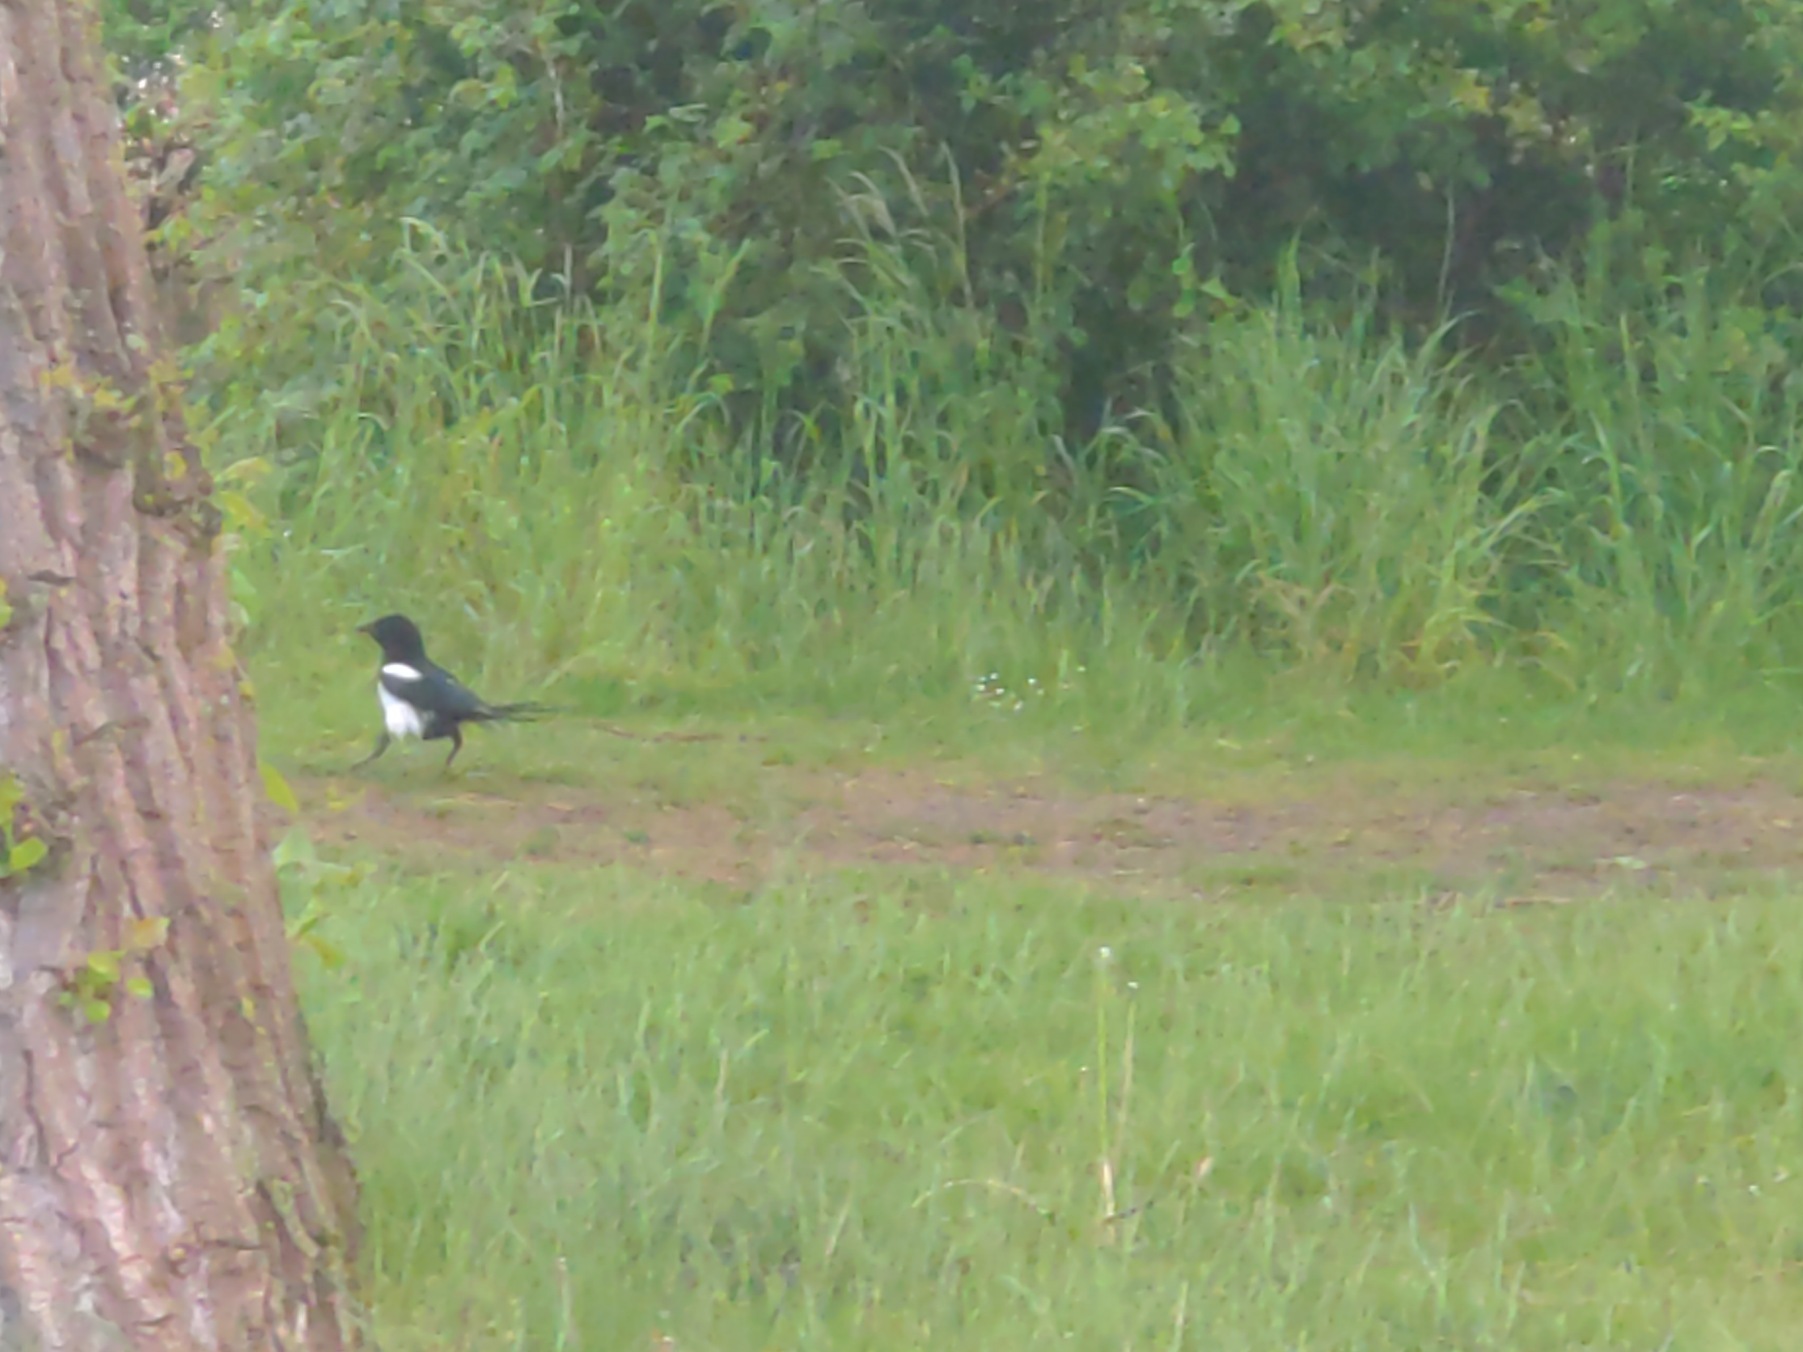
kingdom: Animalia
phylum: Chordata
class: Aves
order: Passeriformes
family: Corvidae
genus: Pica
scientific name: Pica pica
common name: Husskade
